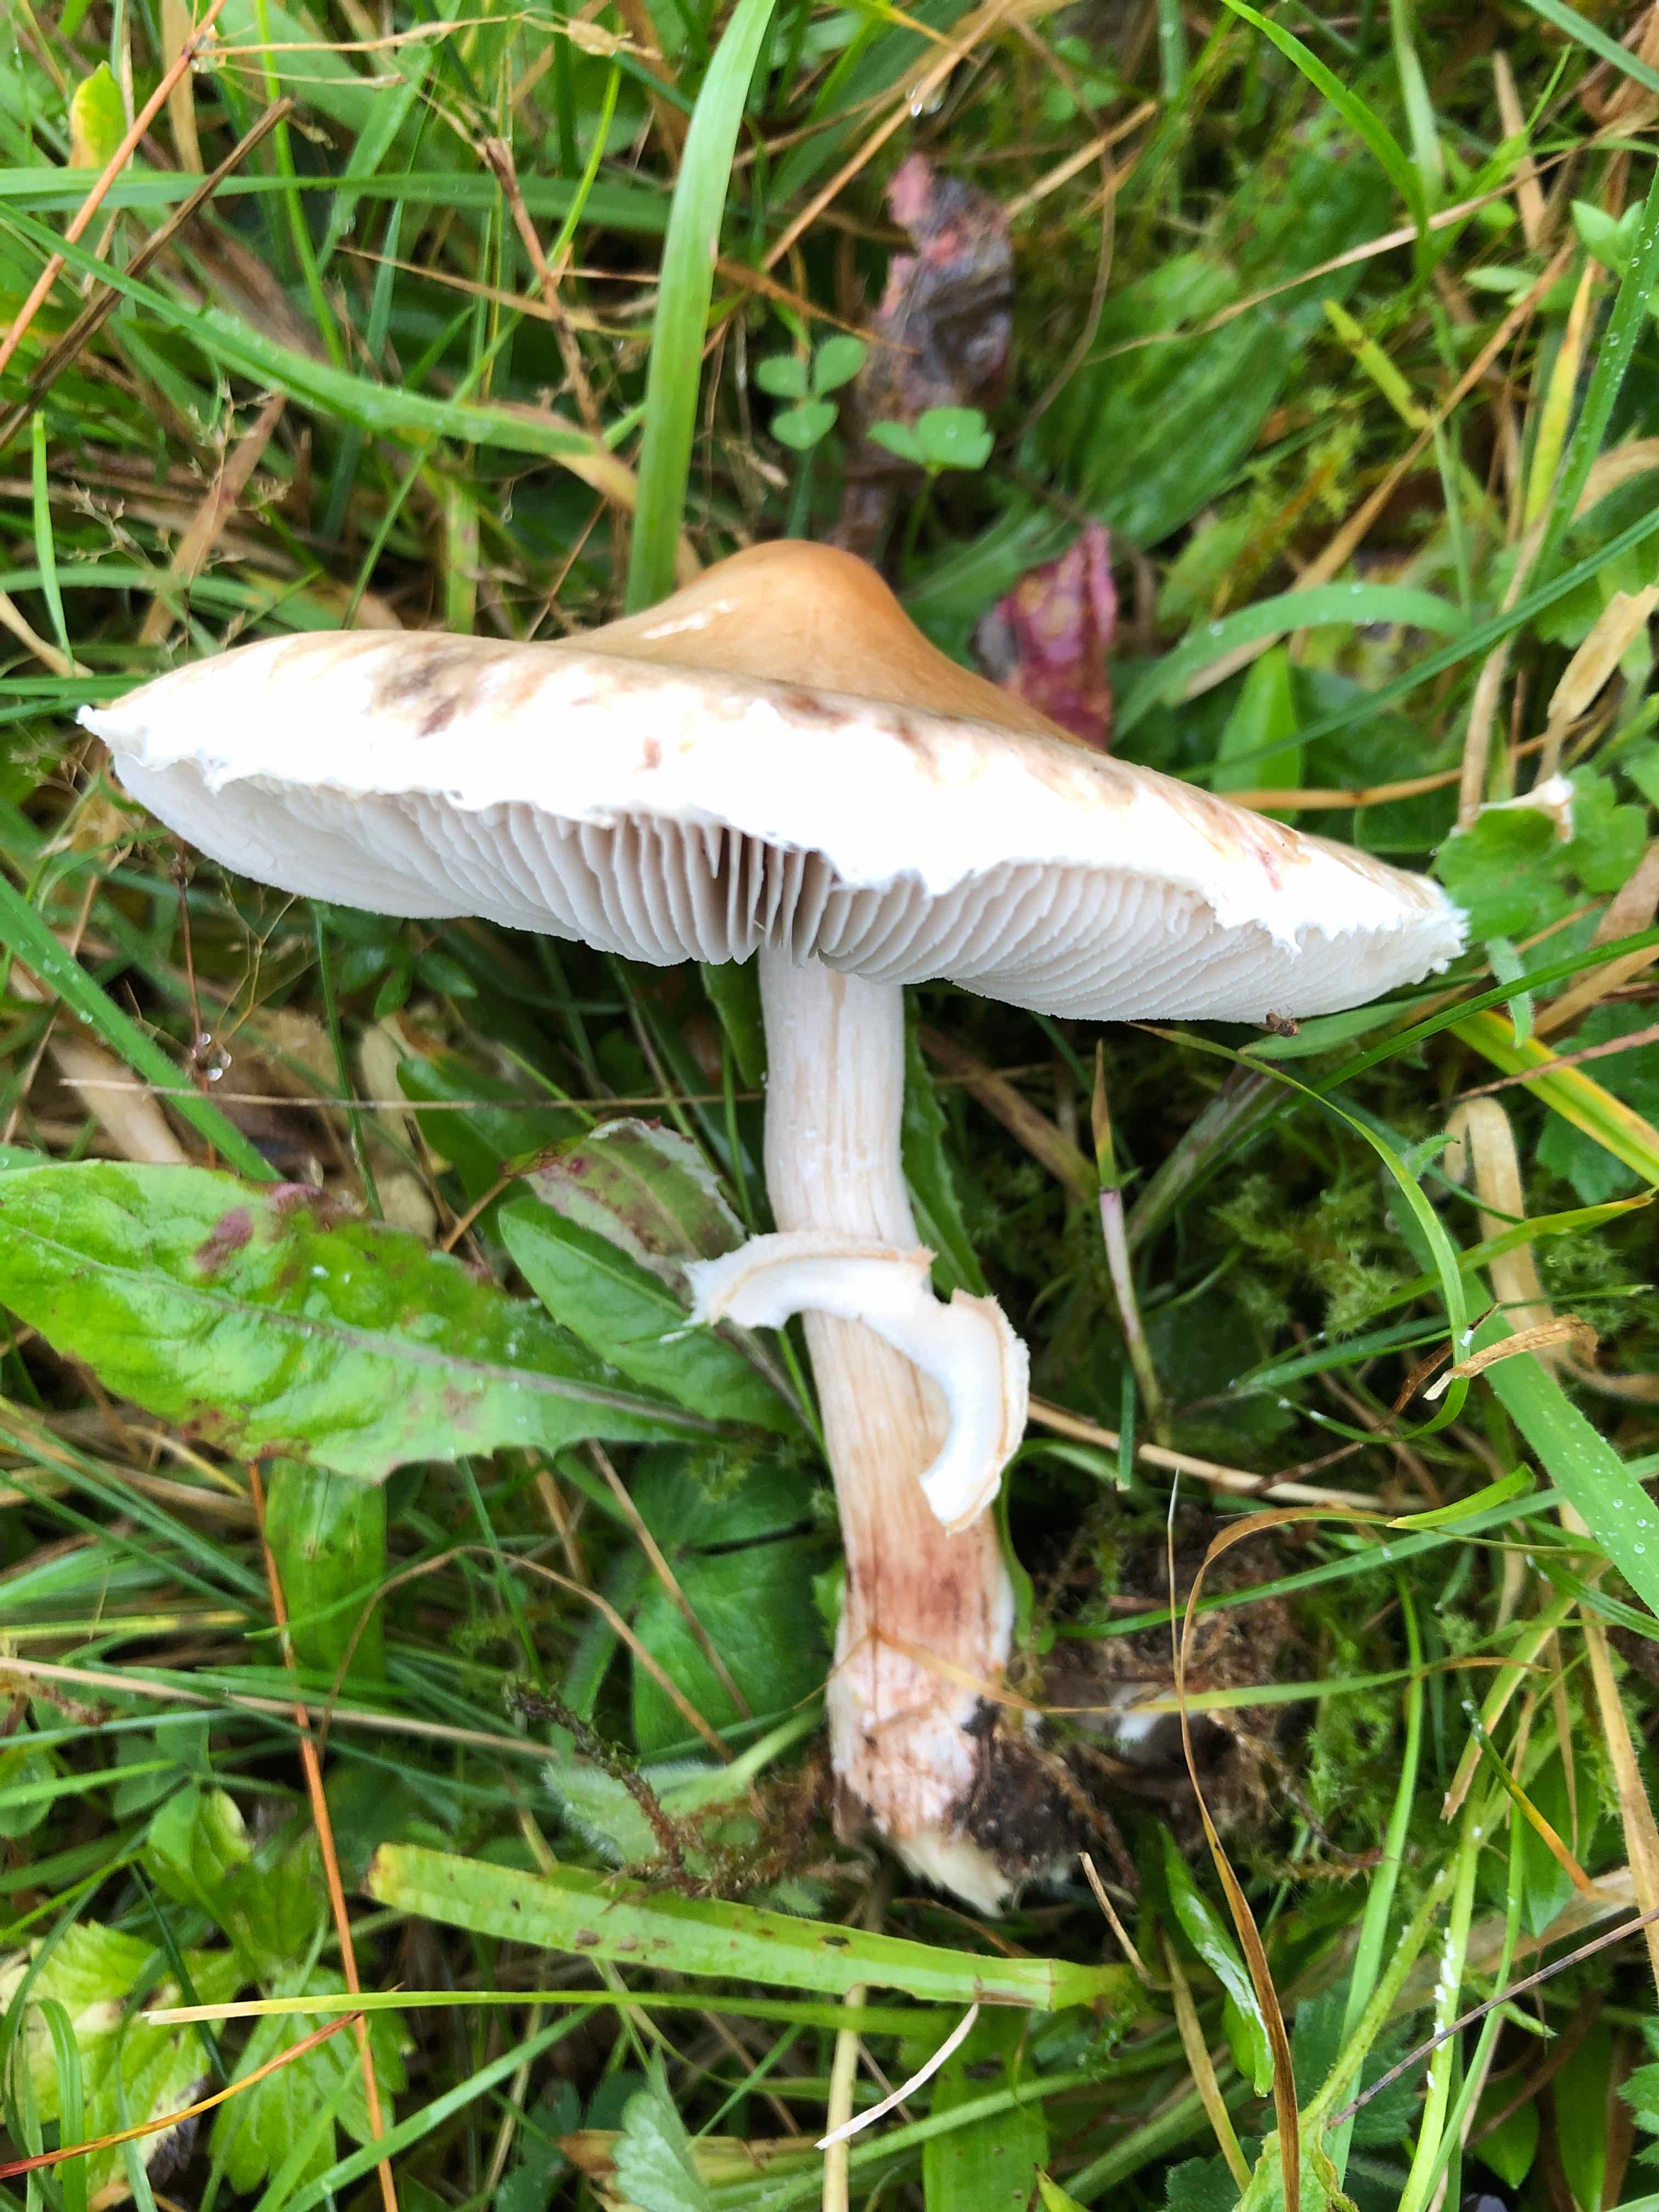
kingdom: Fungi
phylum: Basidiomycota
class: Agaricomycetes
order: Agaricales
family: Agaricaceae
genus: Macrolepiota
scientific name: Macrolepiota
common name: kæmpeparasolhat
